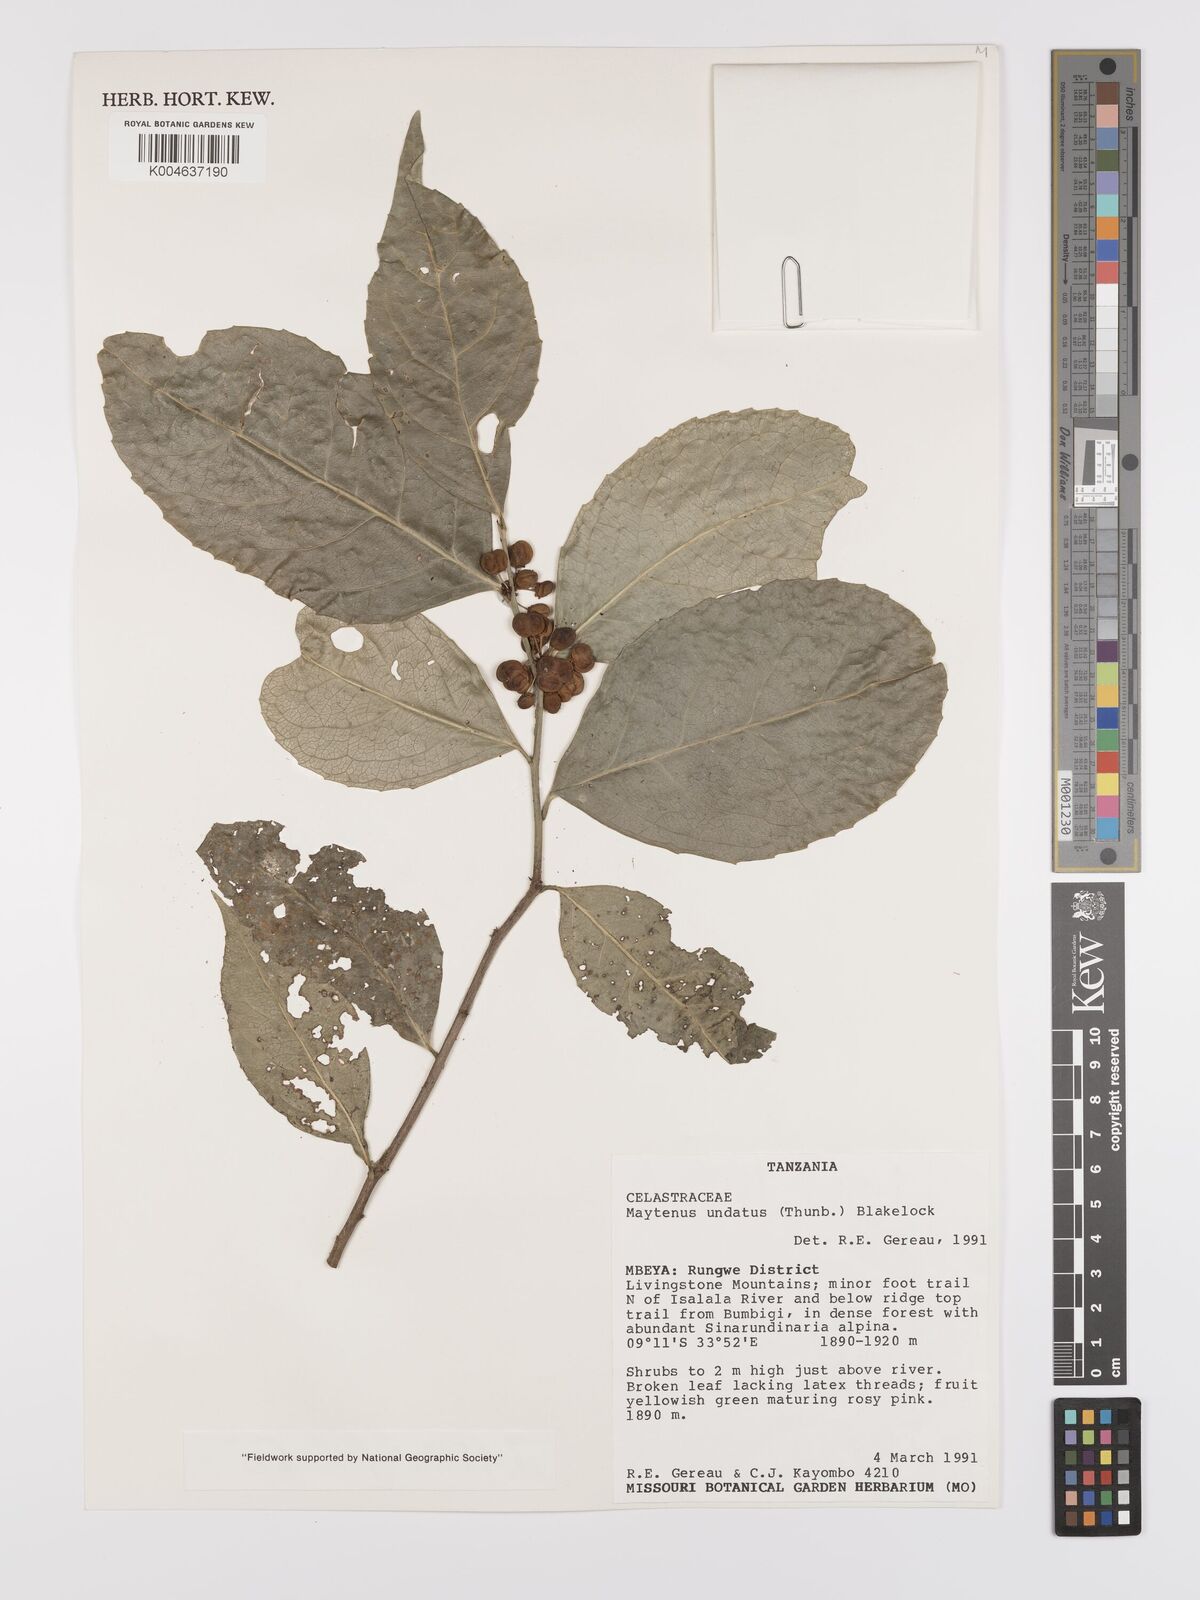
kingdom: Plantae
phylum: Tracheophyta
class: Magnoliopsida
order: Celastrales
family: Celastraceae
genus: Gymnosporia
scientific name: Gymnosporia undata
